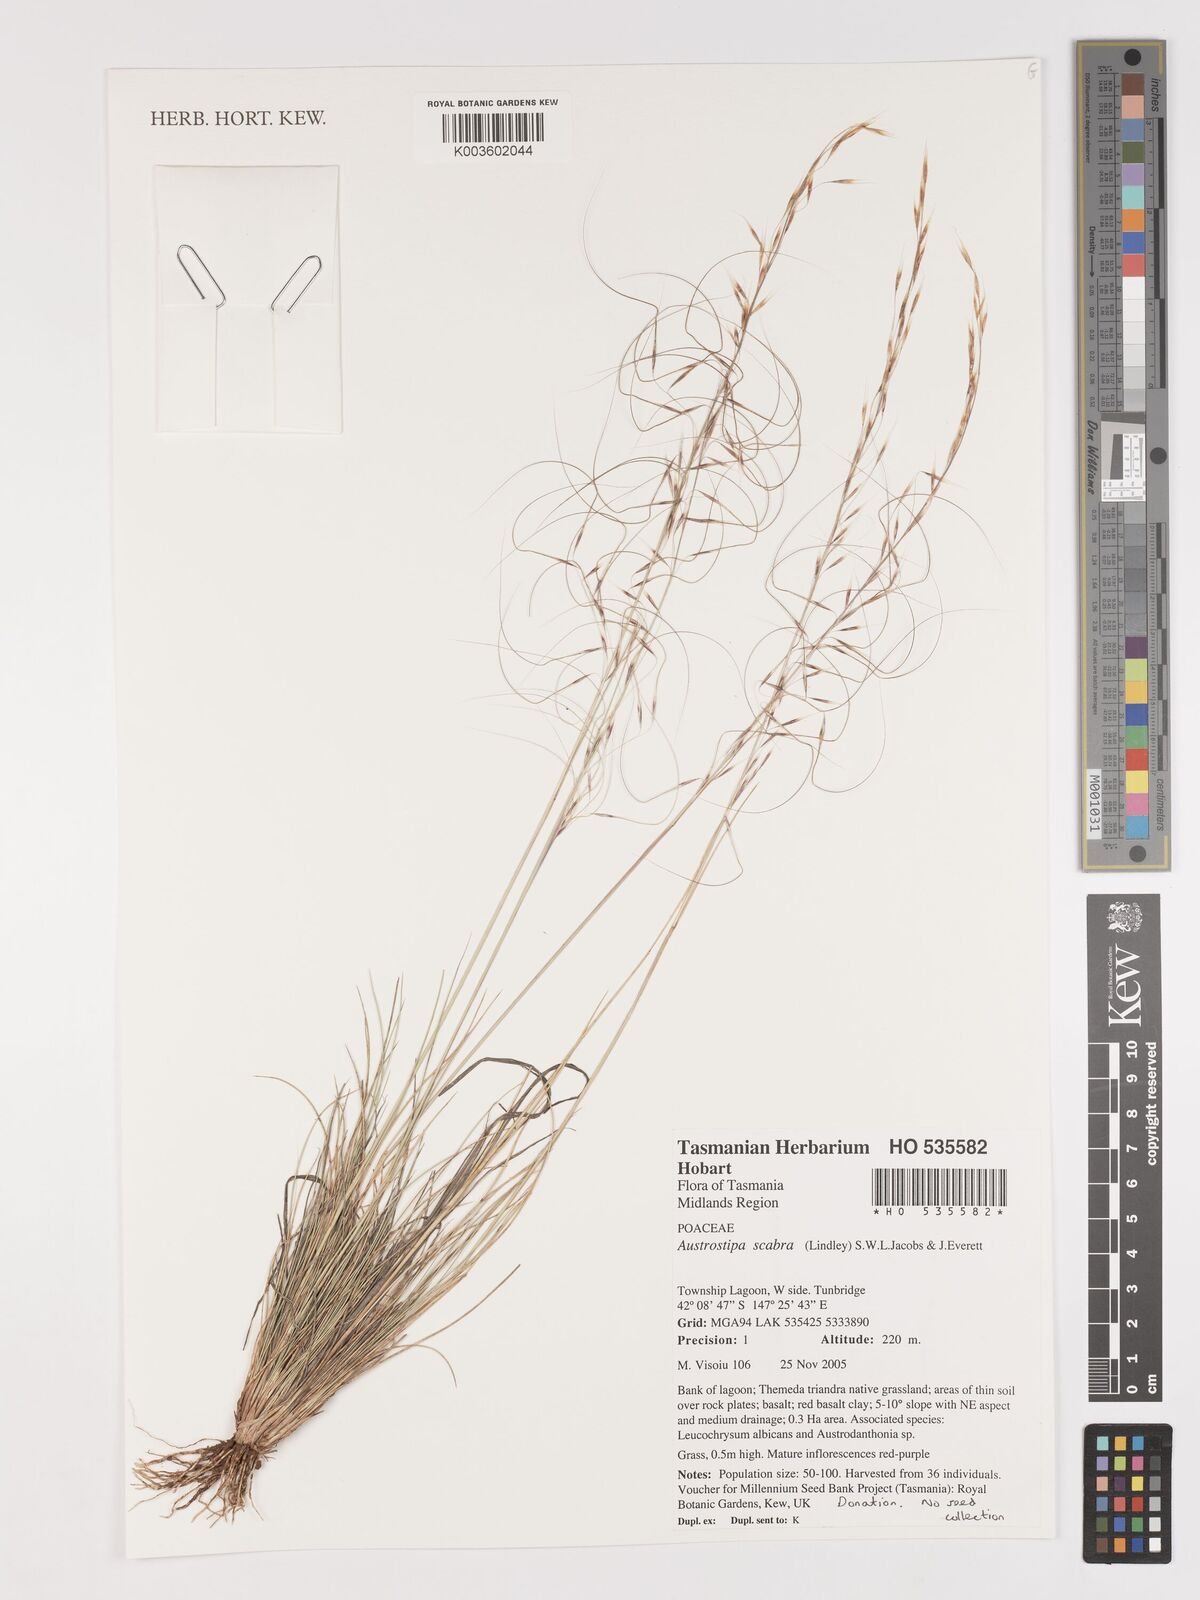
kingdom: Plantae
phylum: Tracheophyta
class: Liliopsida
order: Poales
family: Poaceae
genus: Austrostipa
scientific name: Austrostipa scabra
